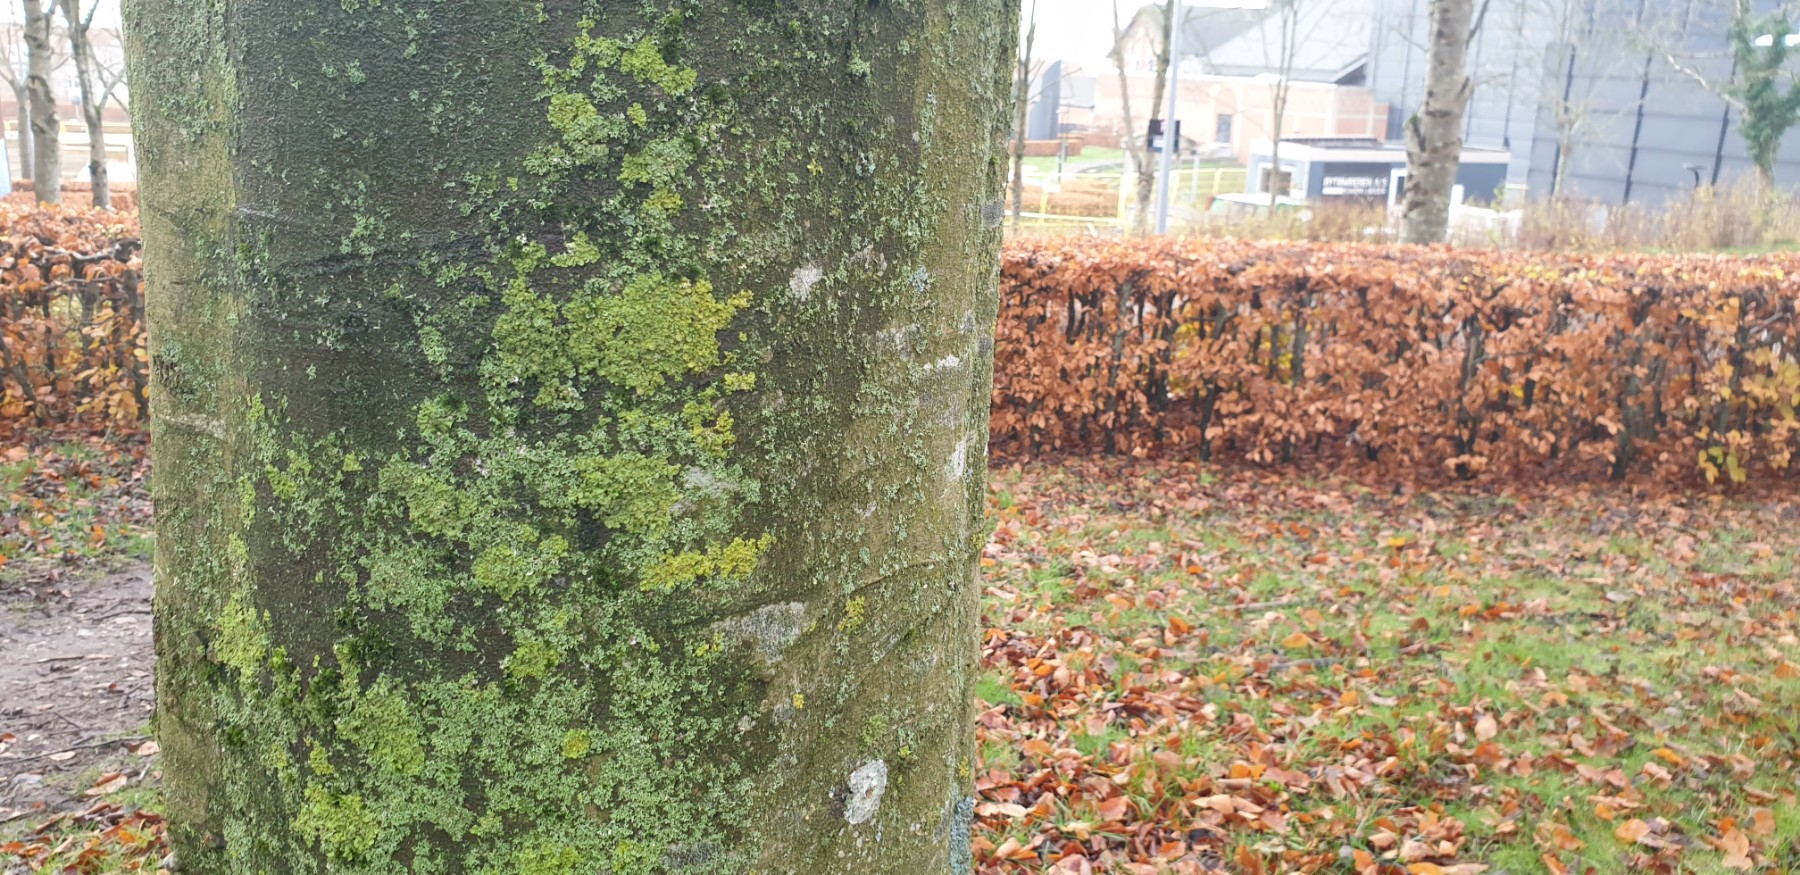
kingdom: Fungi
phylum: Ascomycota
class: Lecanoromycetes
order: Teloschistales
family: Teloschistaceae
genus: Xanthoria
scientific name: Xanthoria parietina
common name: almindelig væggelav
